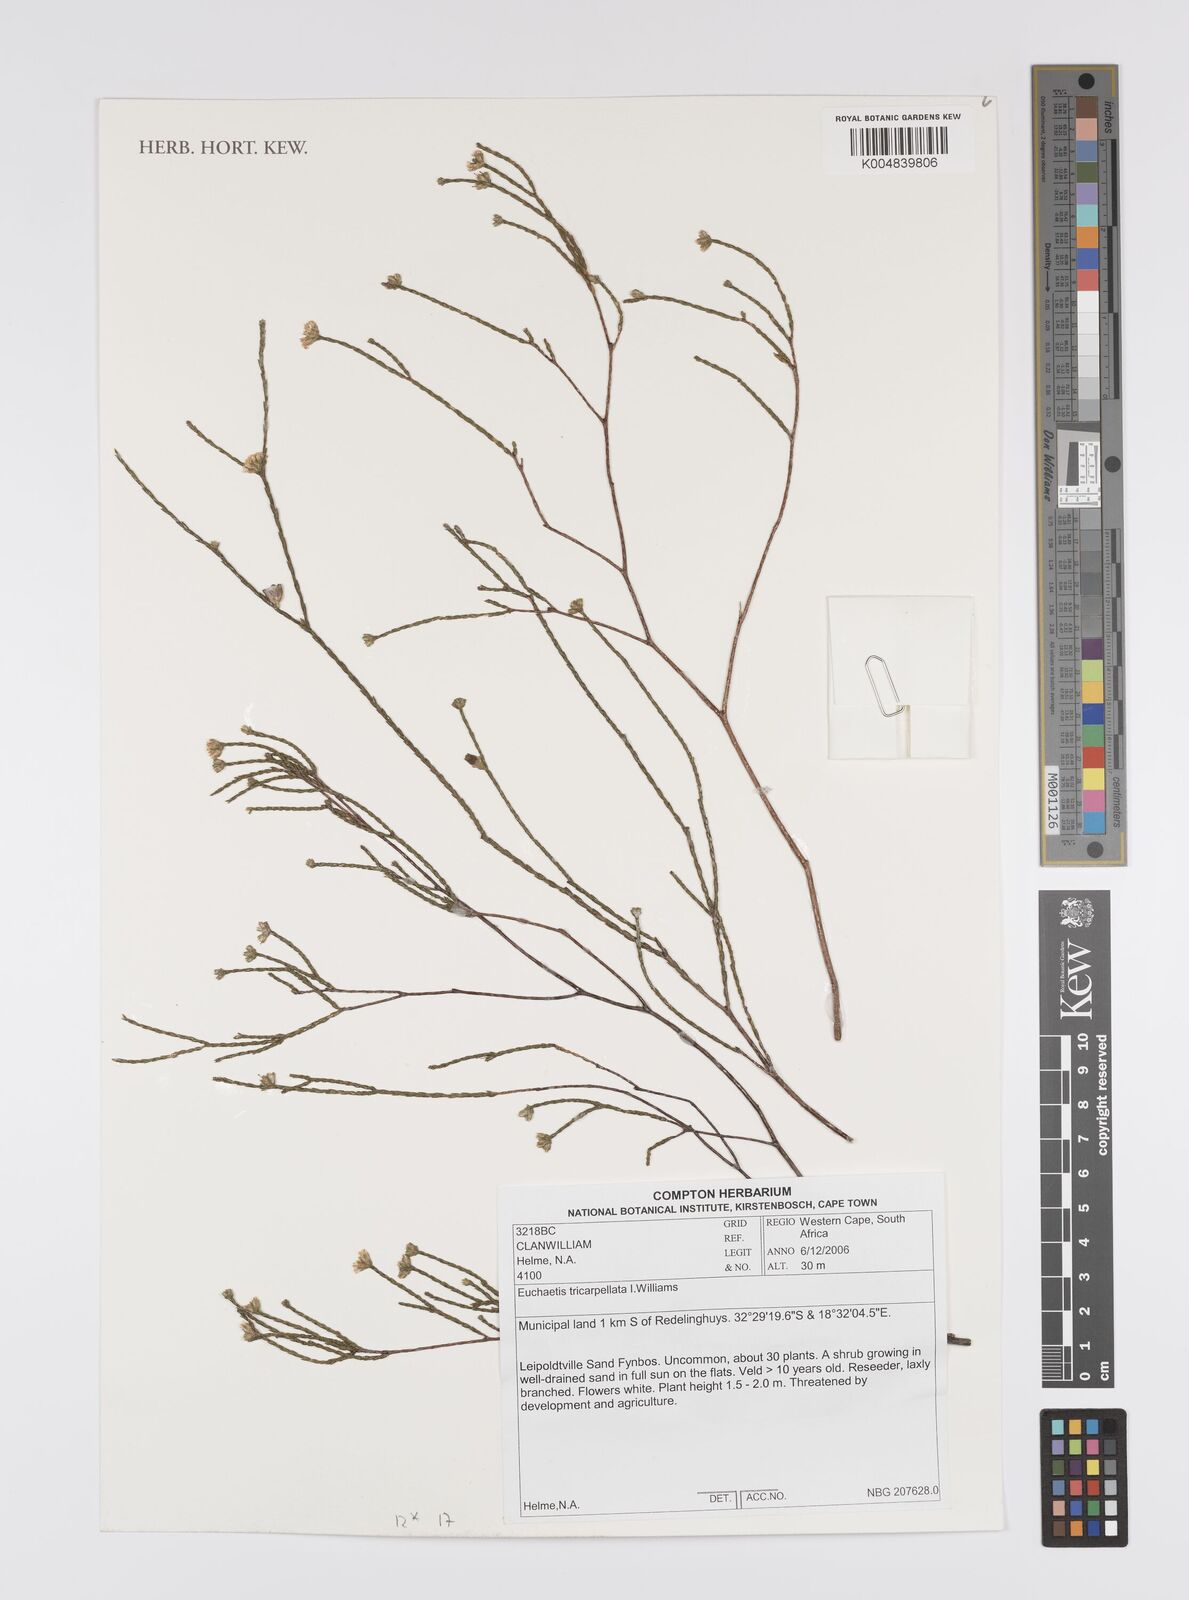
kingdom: Plantae
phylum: Tracheophyta
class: Magnoliopsida
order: Sapindales
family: Rutaceae
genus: Euchaetis
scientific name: Euchaetis tricarpellata
